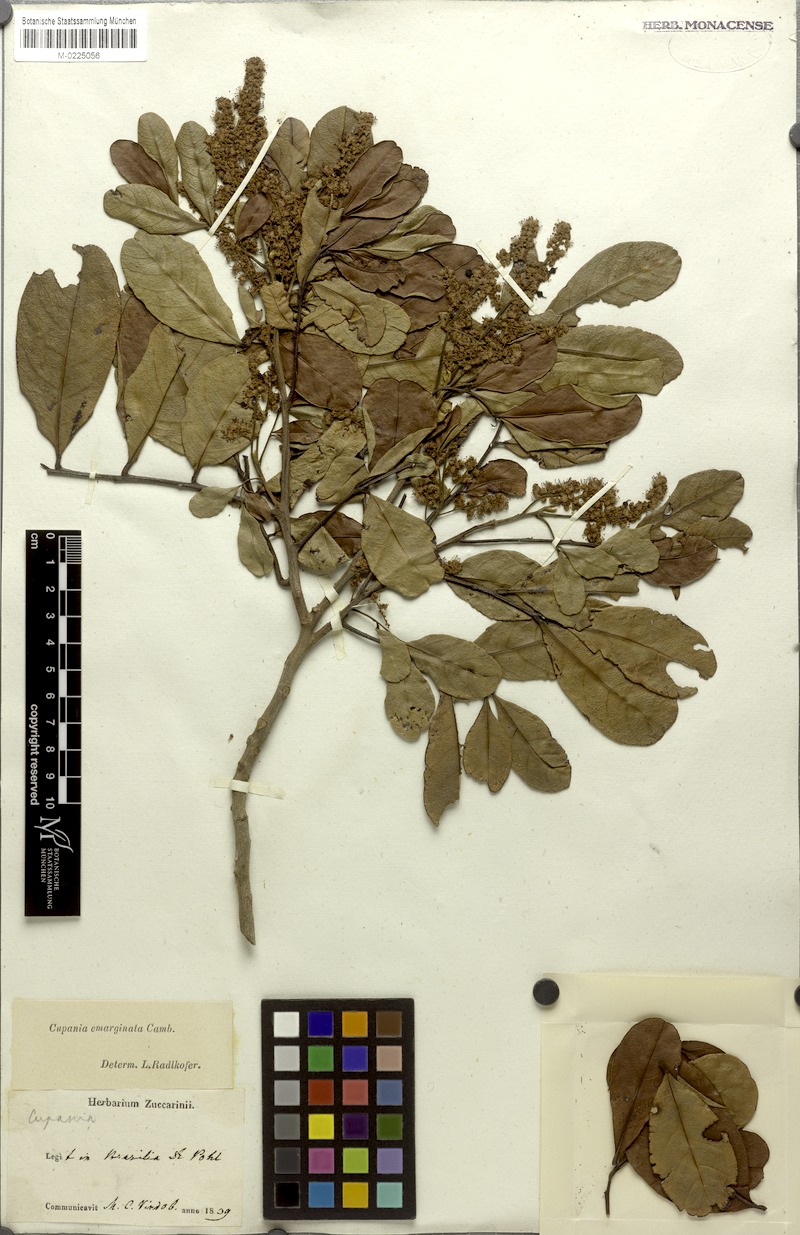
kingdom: Plantae
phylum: Tracheophyta
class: Magnoliopsida
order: Sapindales
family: Sapindaceae
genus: Cupania
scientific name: Cupania emarginata
